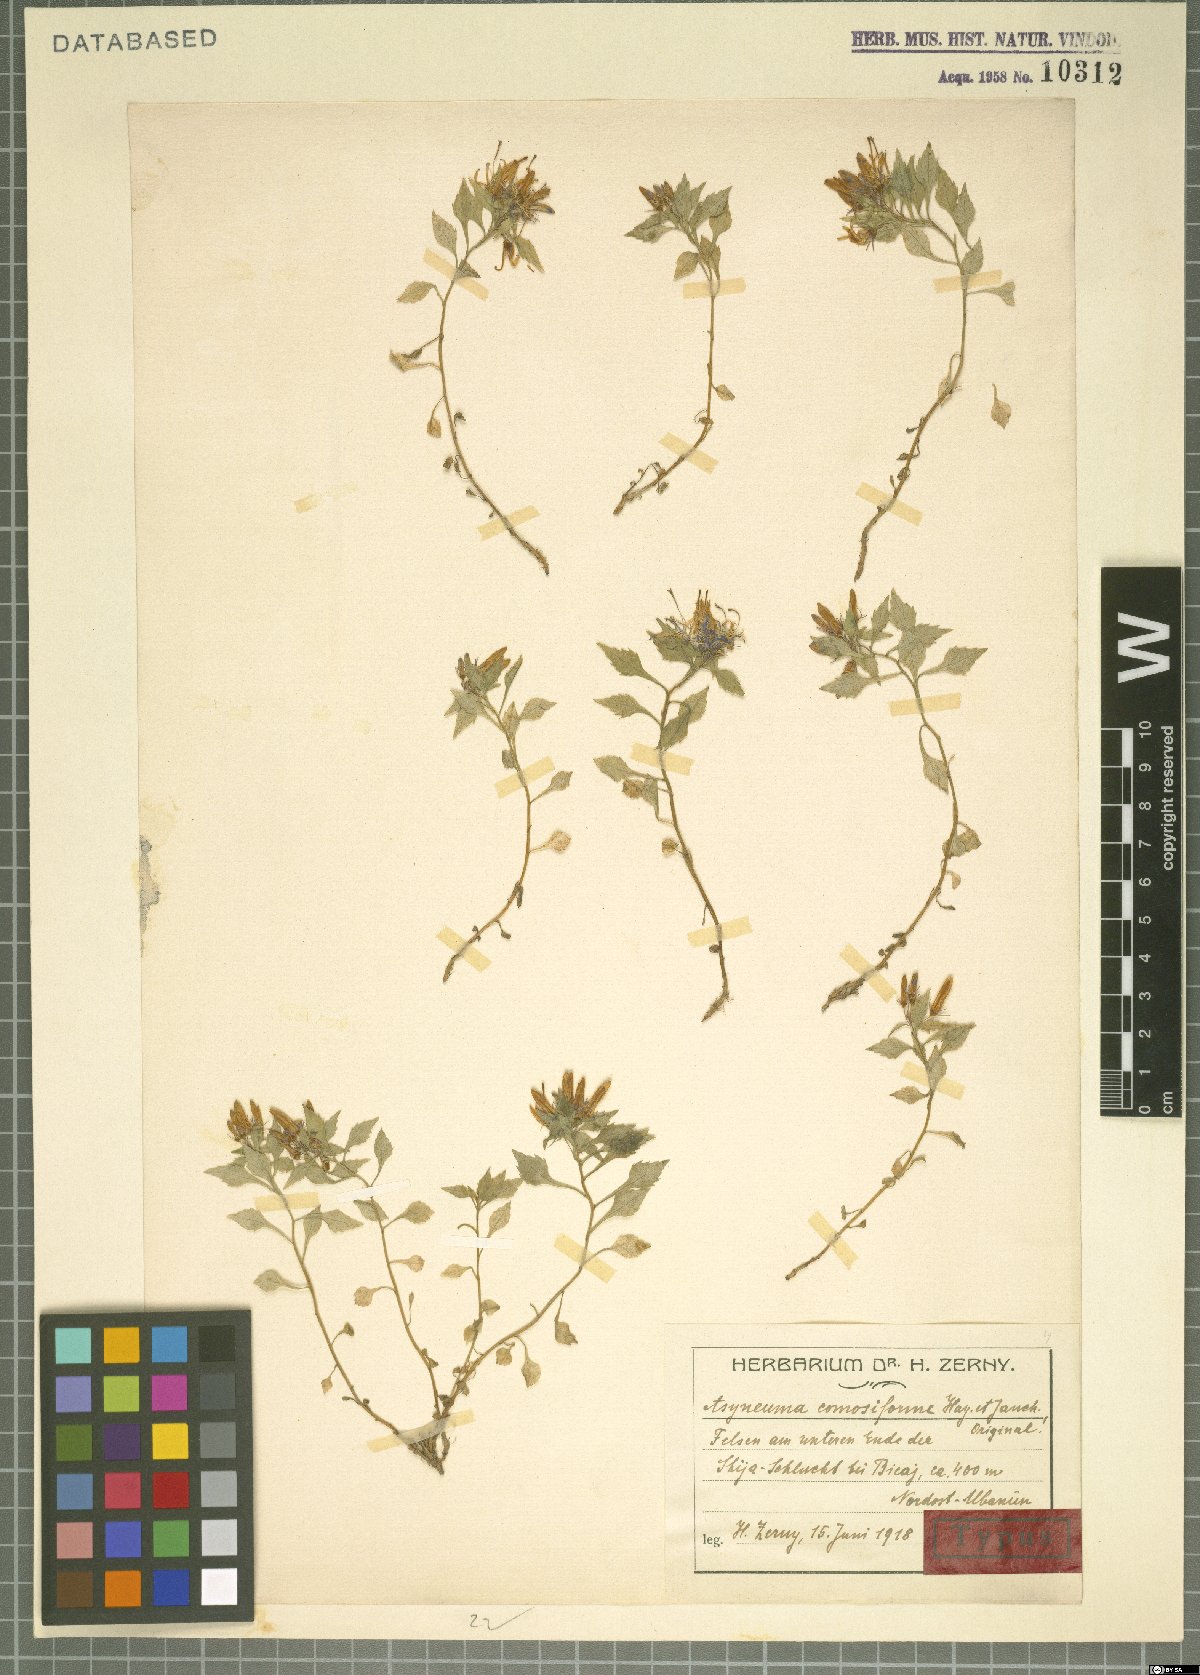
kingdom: Plantae
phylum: Tracheophyta
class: Magnoliopsida
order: Asterales
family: Campanulaceae
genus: Campanula
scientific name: Campanula comosiformis
